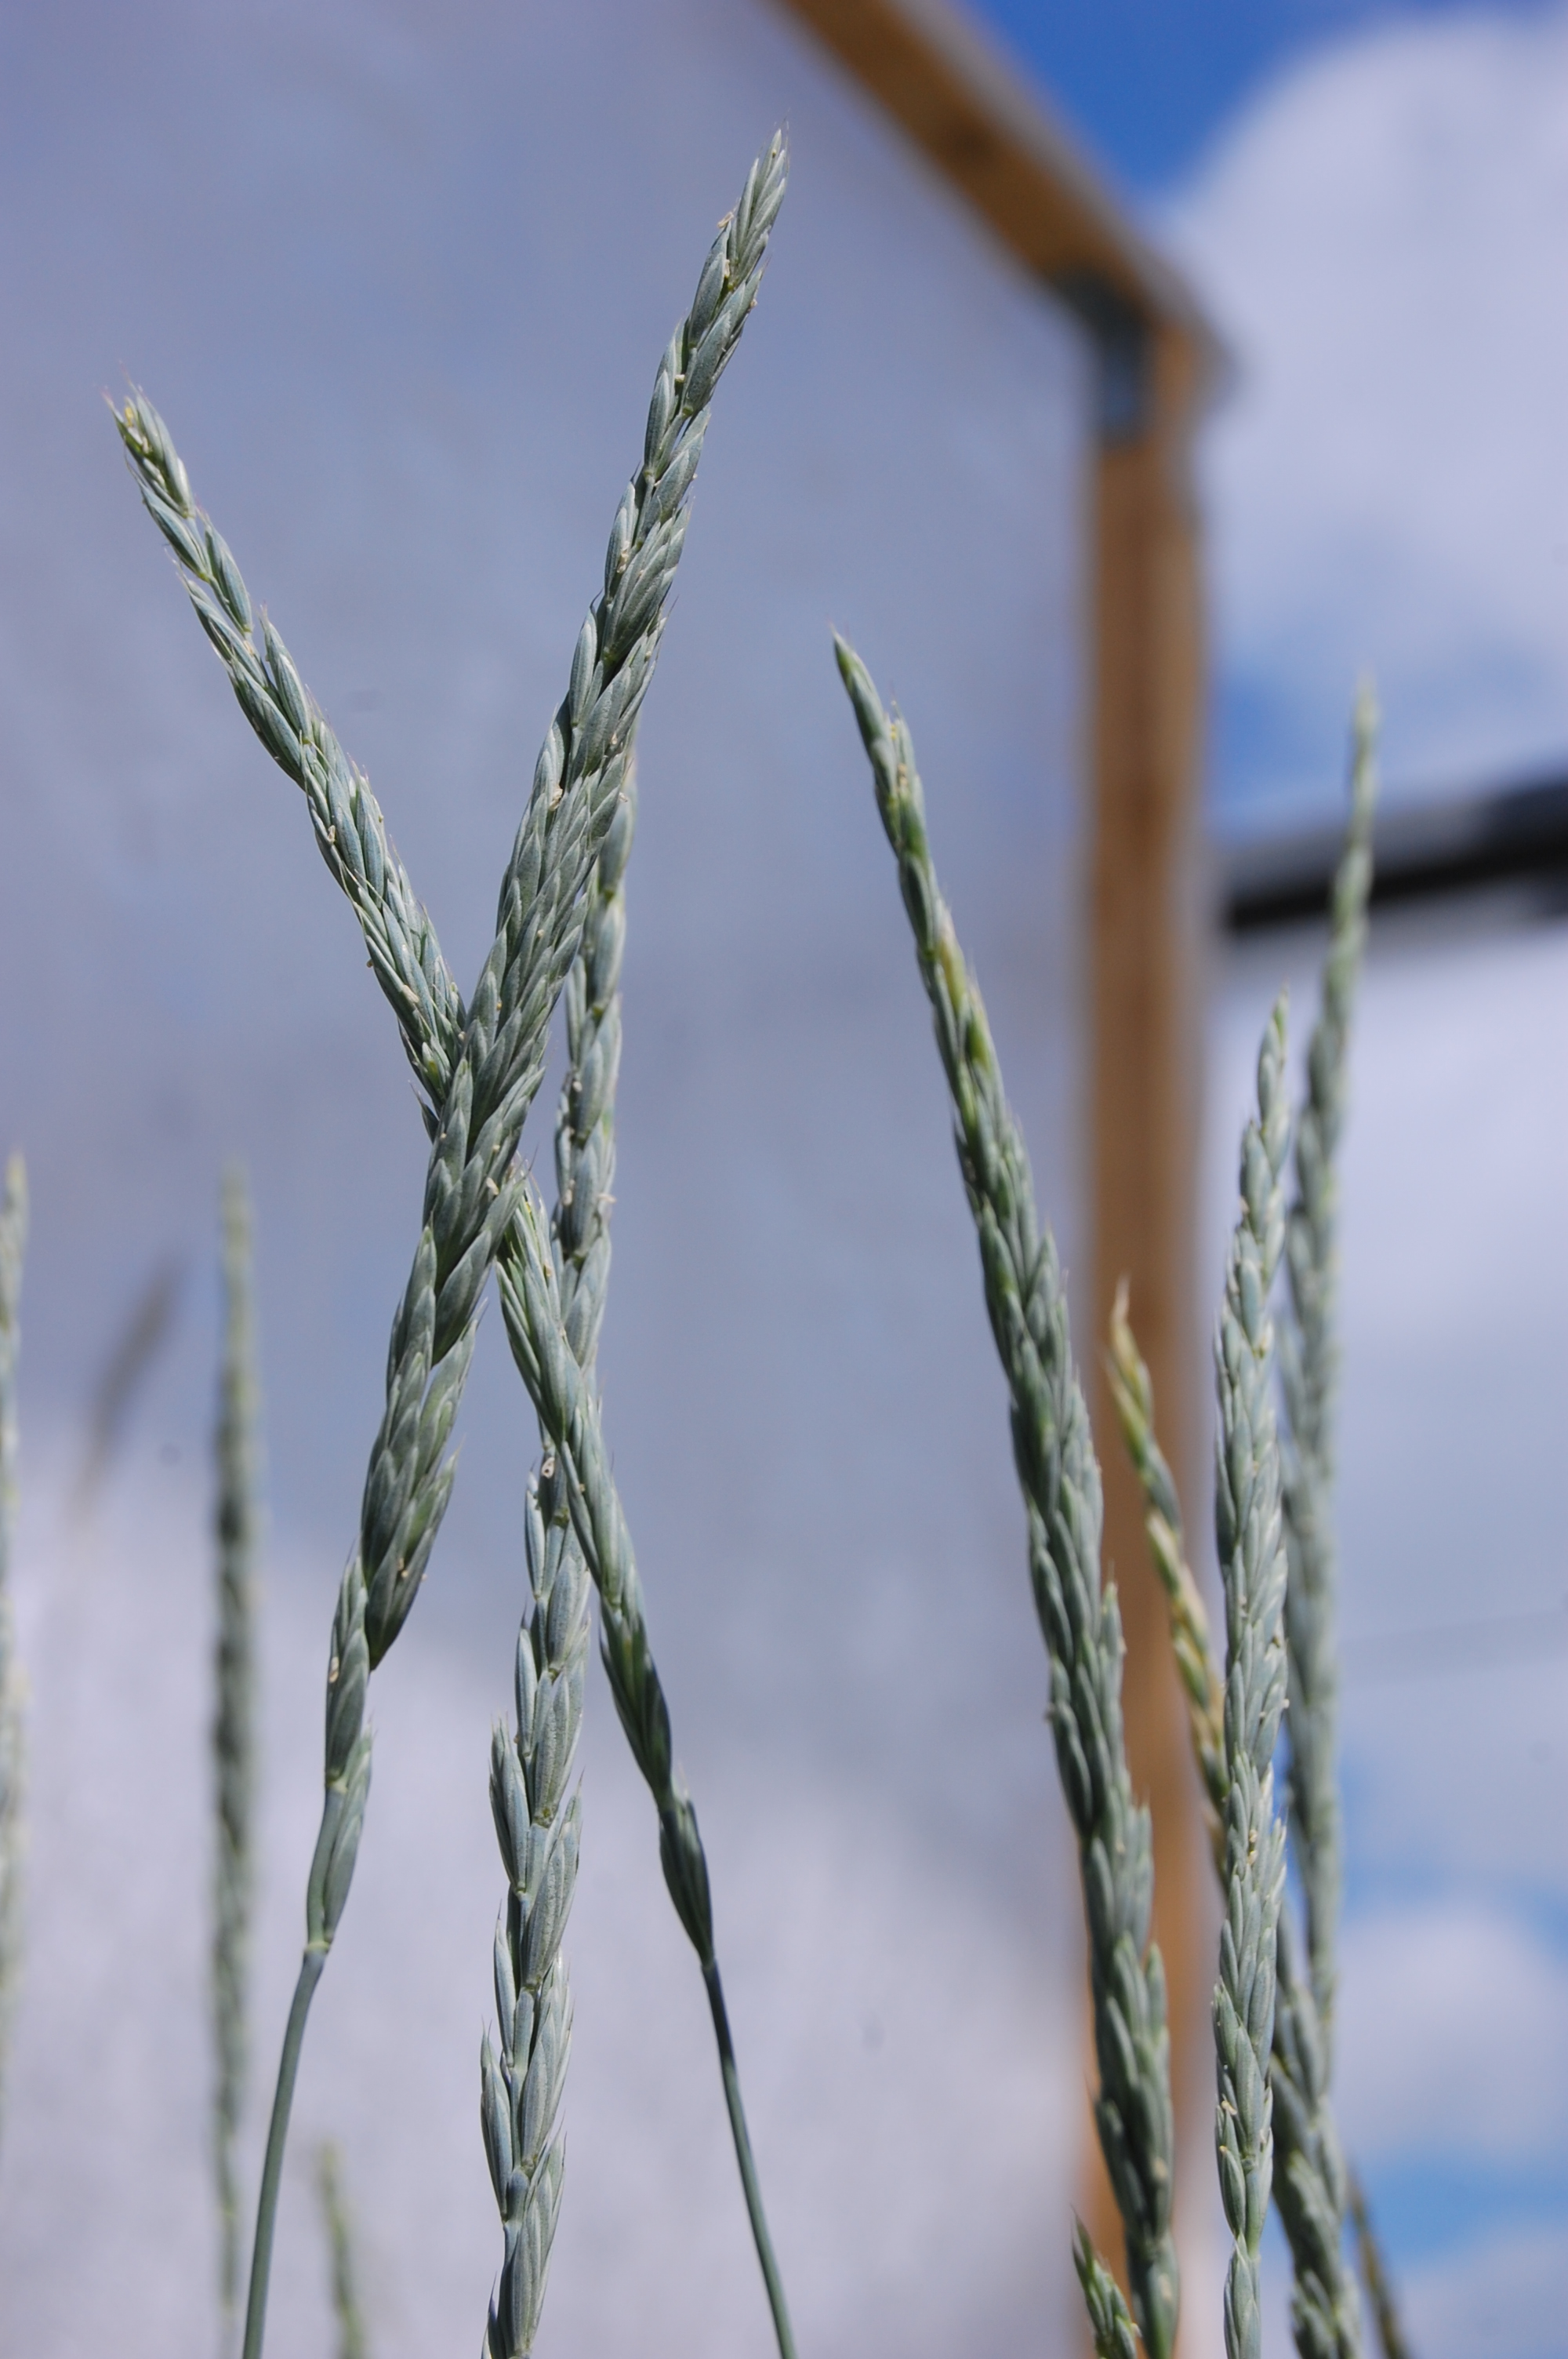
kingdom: Plantae
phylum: Tracheophyta
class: Liliopsida
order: Poales
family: Poaceae
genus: Elymus
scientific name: Elymus alaskanus
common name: Alaska wheatgrass
